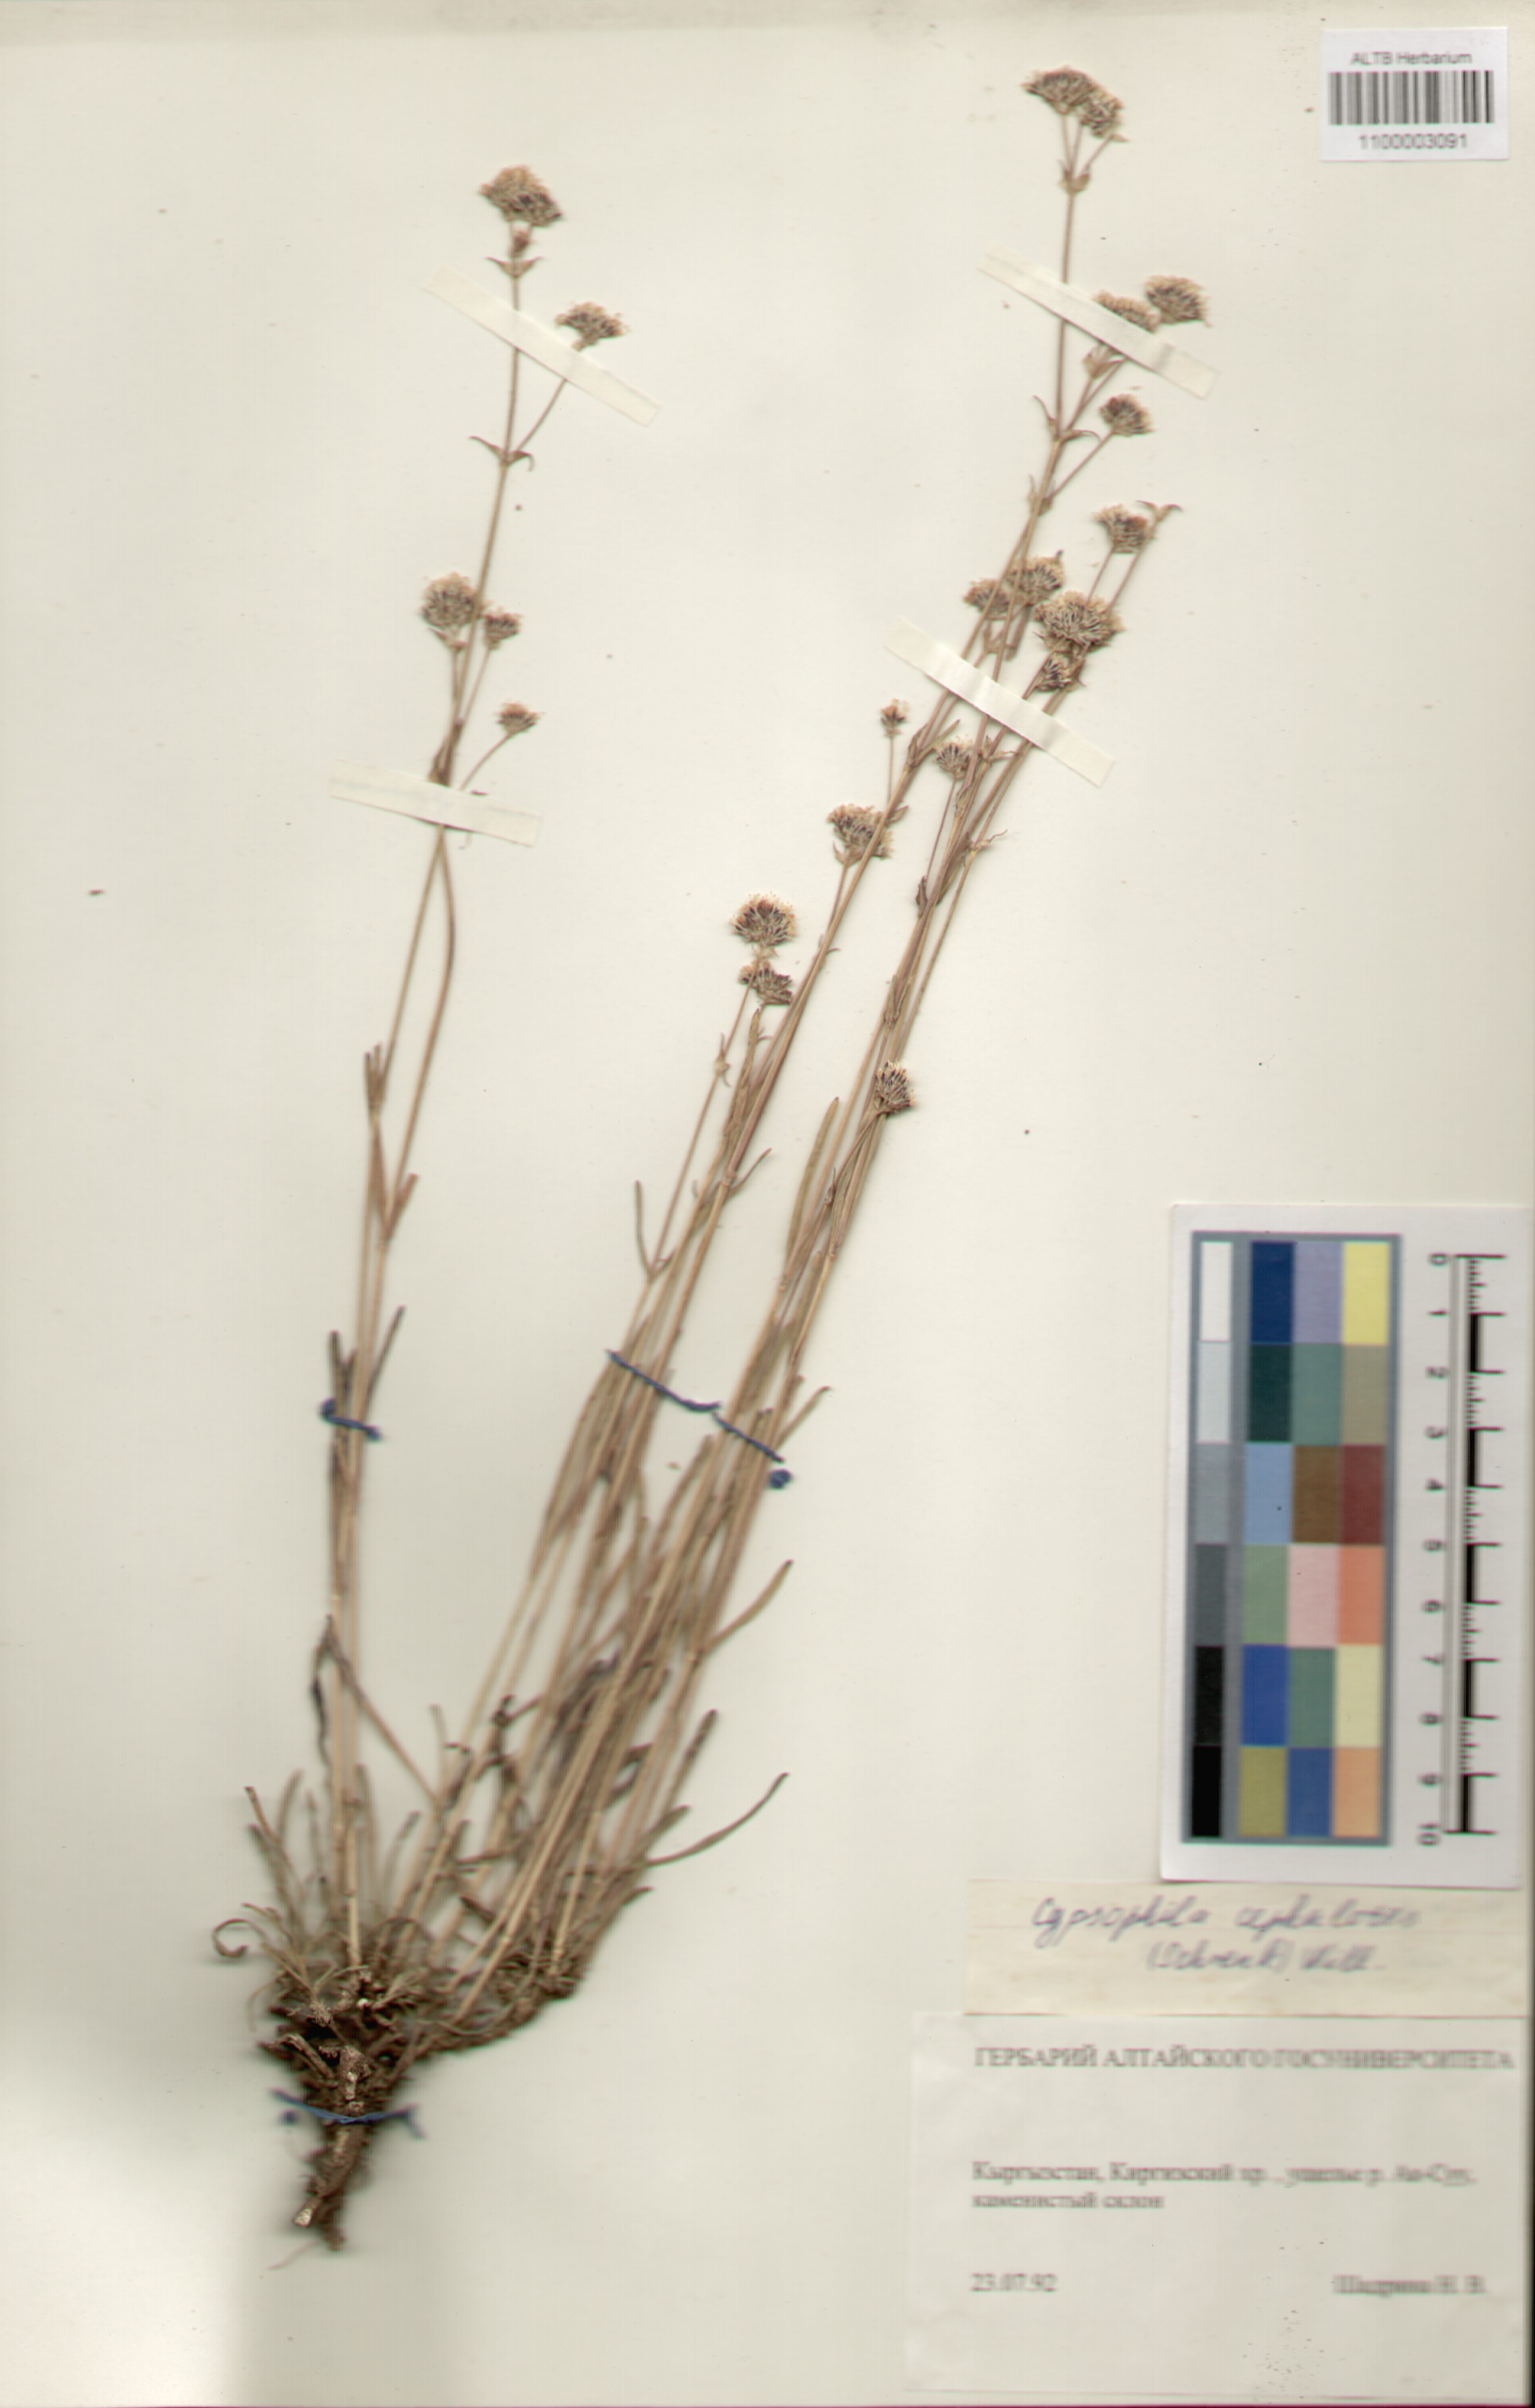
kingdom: Plantae
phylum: Tracheophyta
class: Magnoliopsida
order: Caryophyllales
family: Caryophyllaceae
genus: Gypsophila
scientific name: Gypsophila cephalotes
